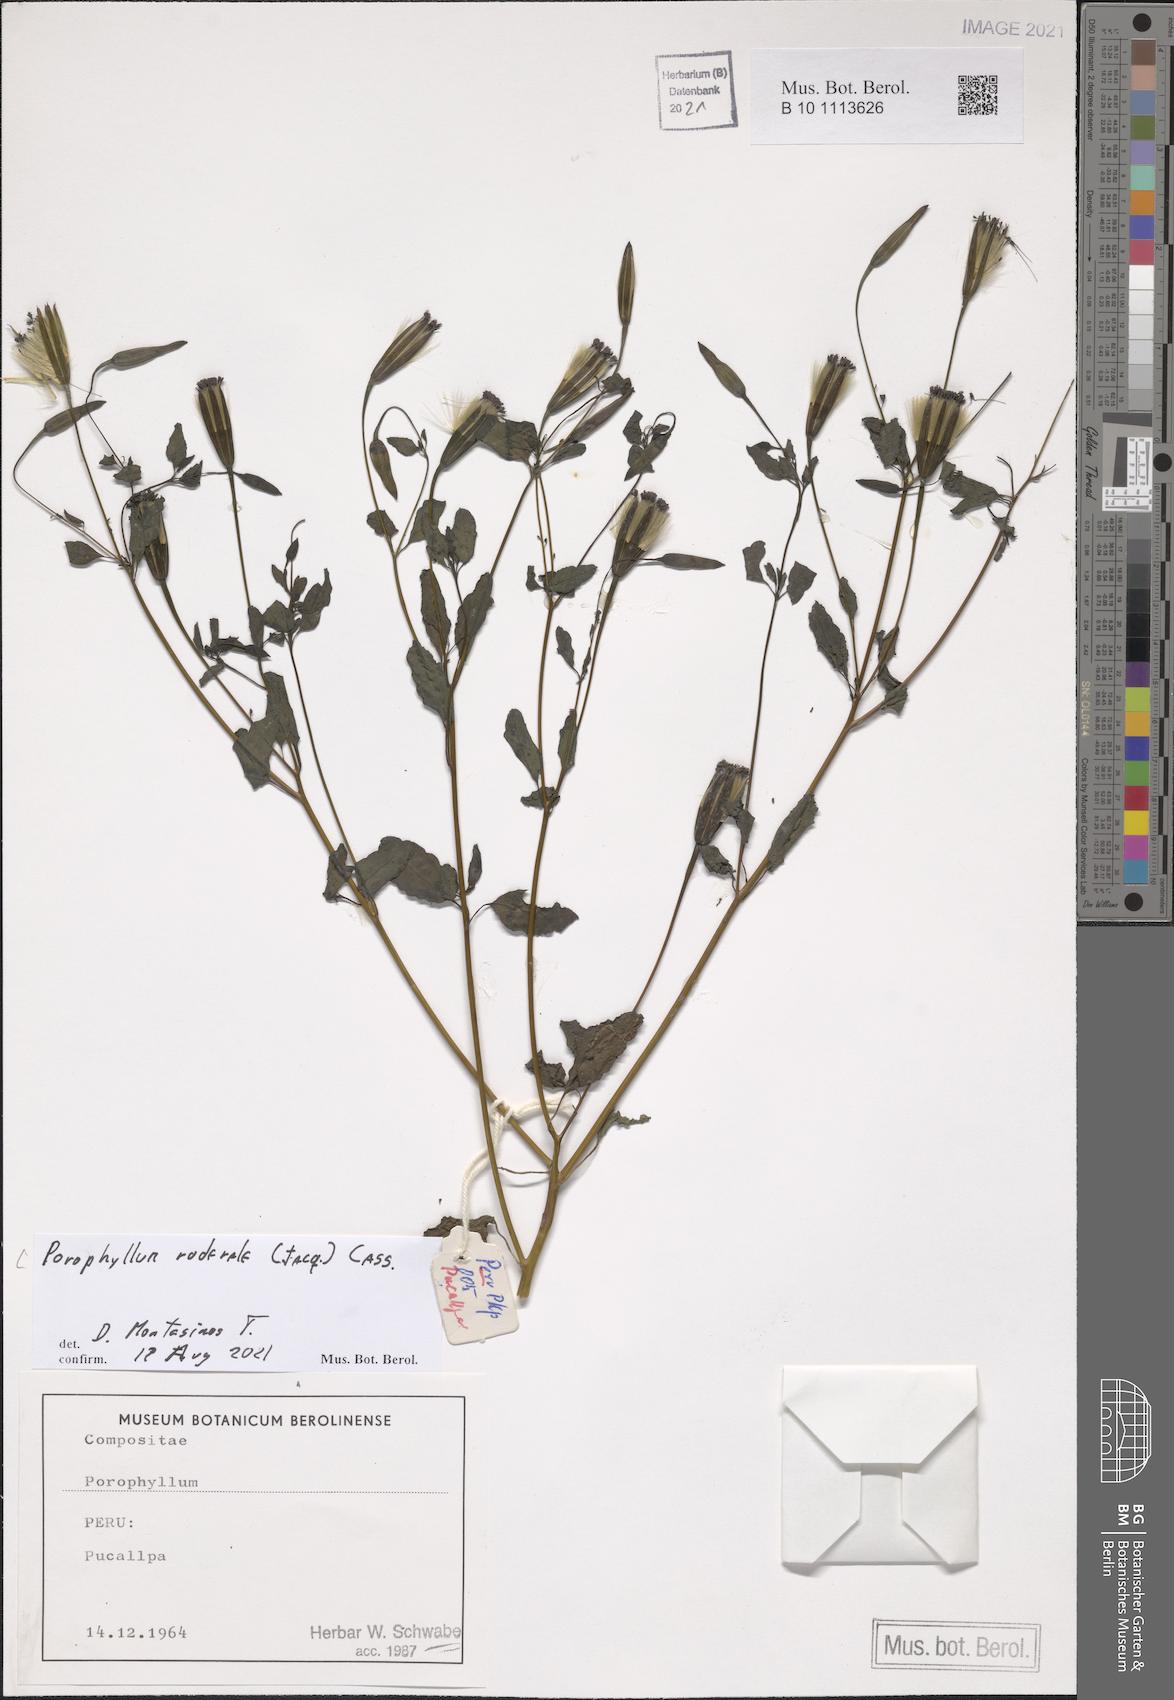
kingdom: Plantae
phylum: Tracheophyta
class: Magnoliopsida
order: Asterales
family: Asteraceae
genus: Porophyllum
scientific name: Porophyllum ruderale
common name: Yerba porosa
